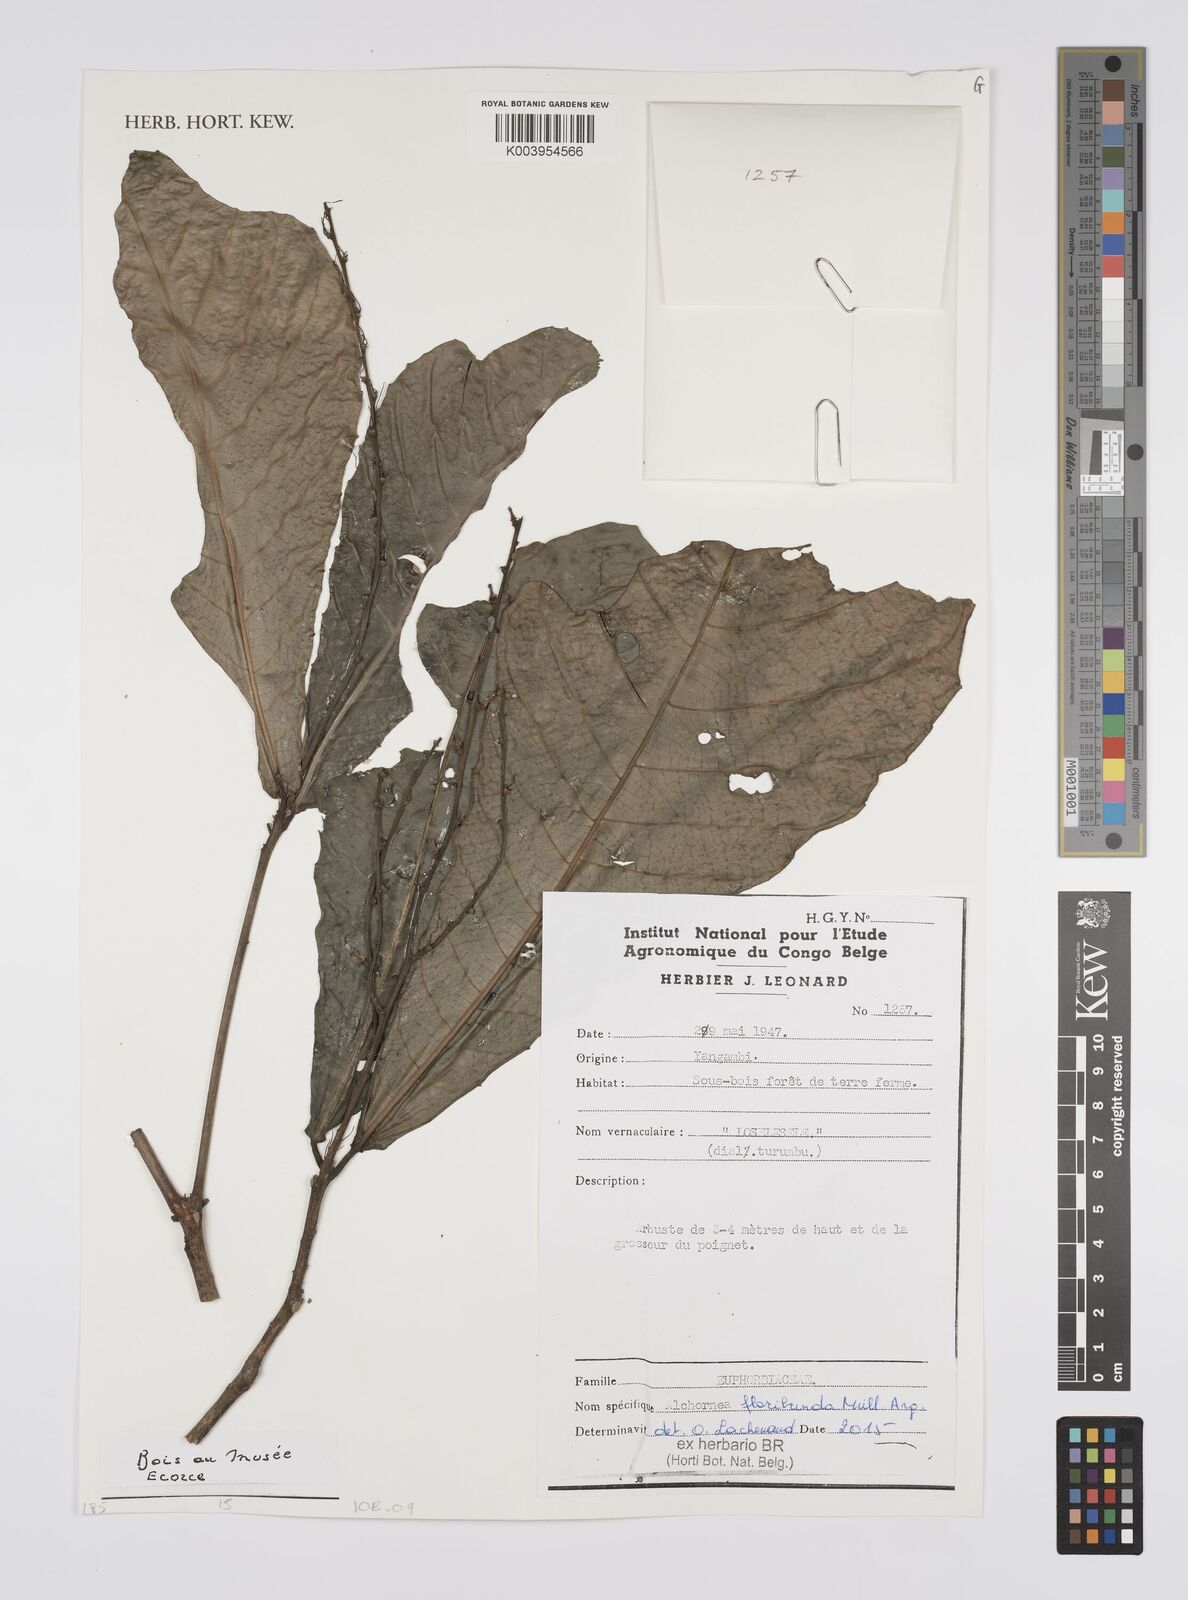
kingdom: Plantae
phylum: Tracheophyta
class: Magnoliopsida
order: Malpighiales
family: Euphorbiaceae
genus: Alchornea
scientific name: Alchornea floribunda
